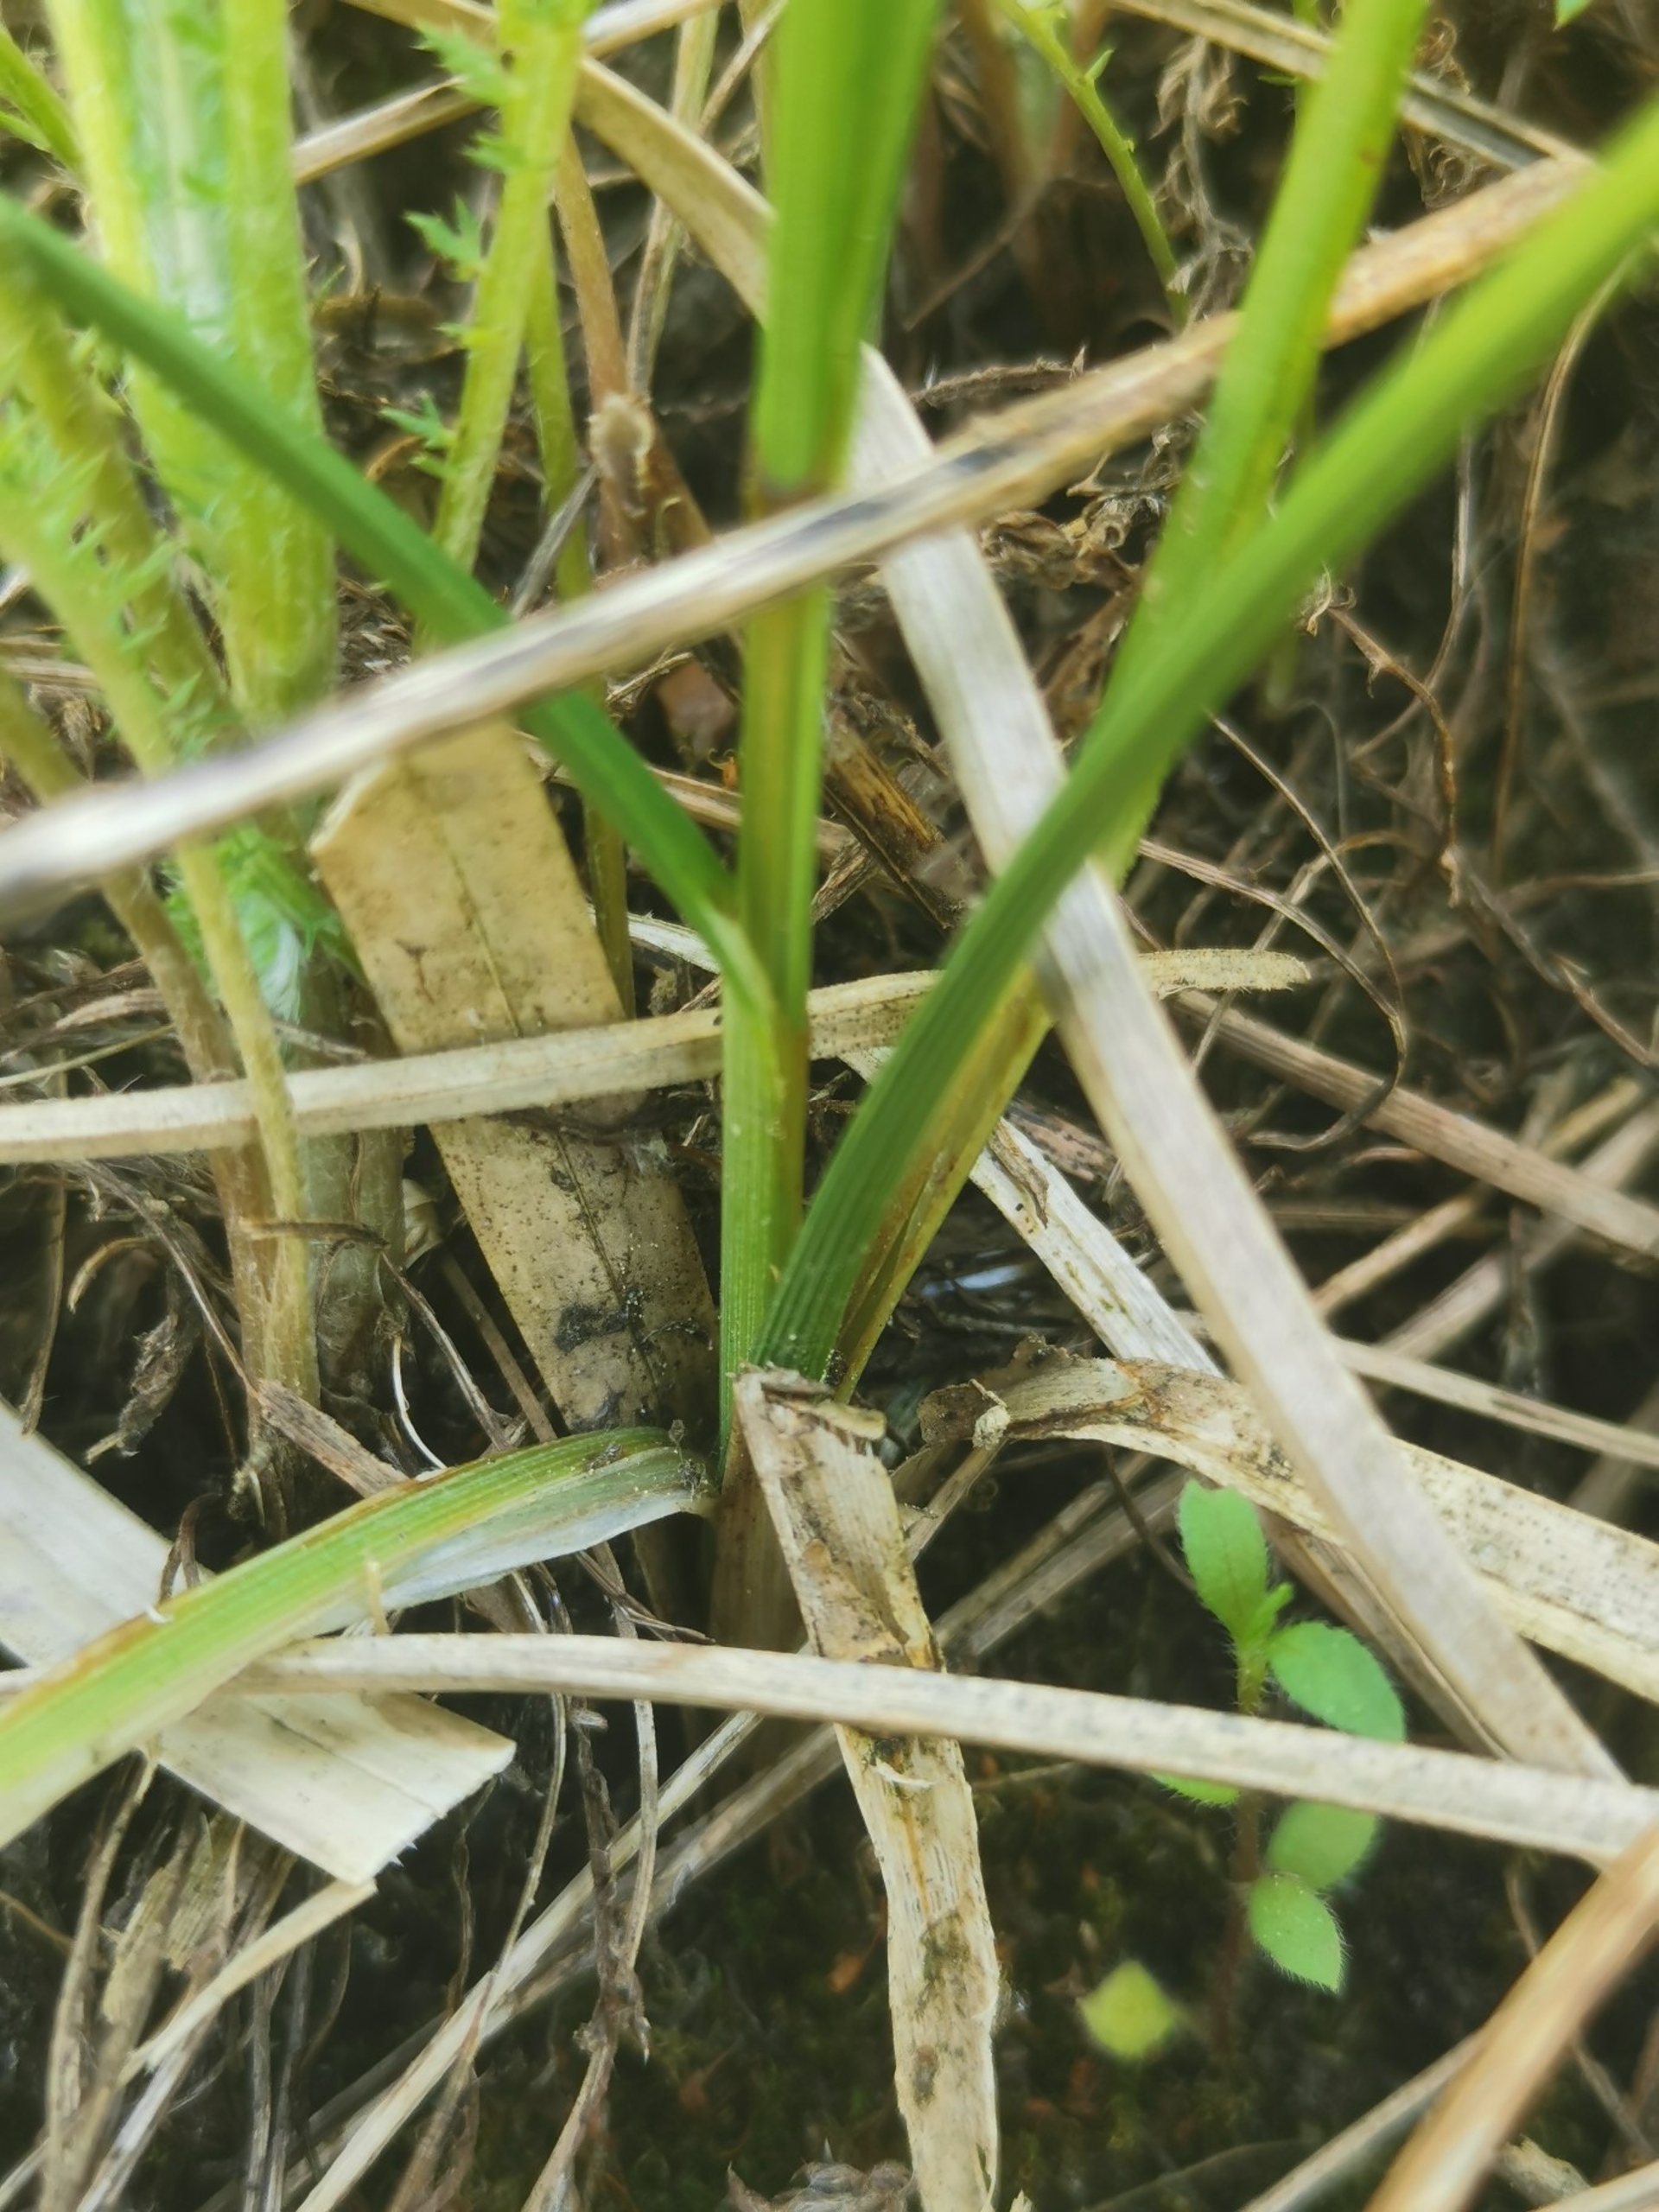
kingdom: Plantae
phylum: Tracheophyta
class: Liliopsida
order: Poales
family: Cyperaceae
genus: Carex
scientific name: Carex arenaria
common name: Sand-star
